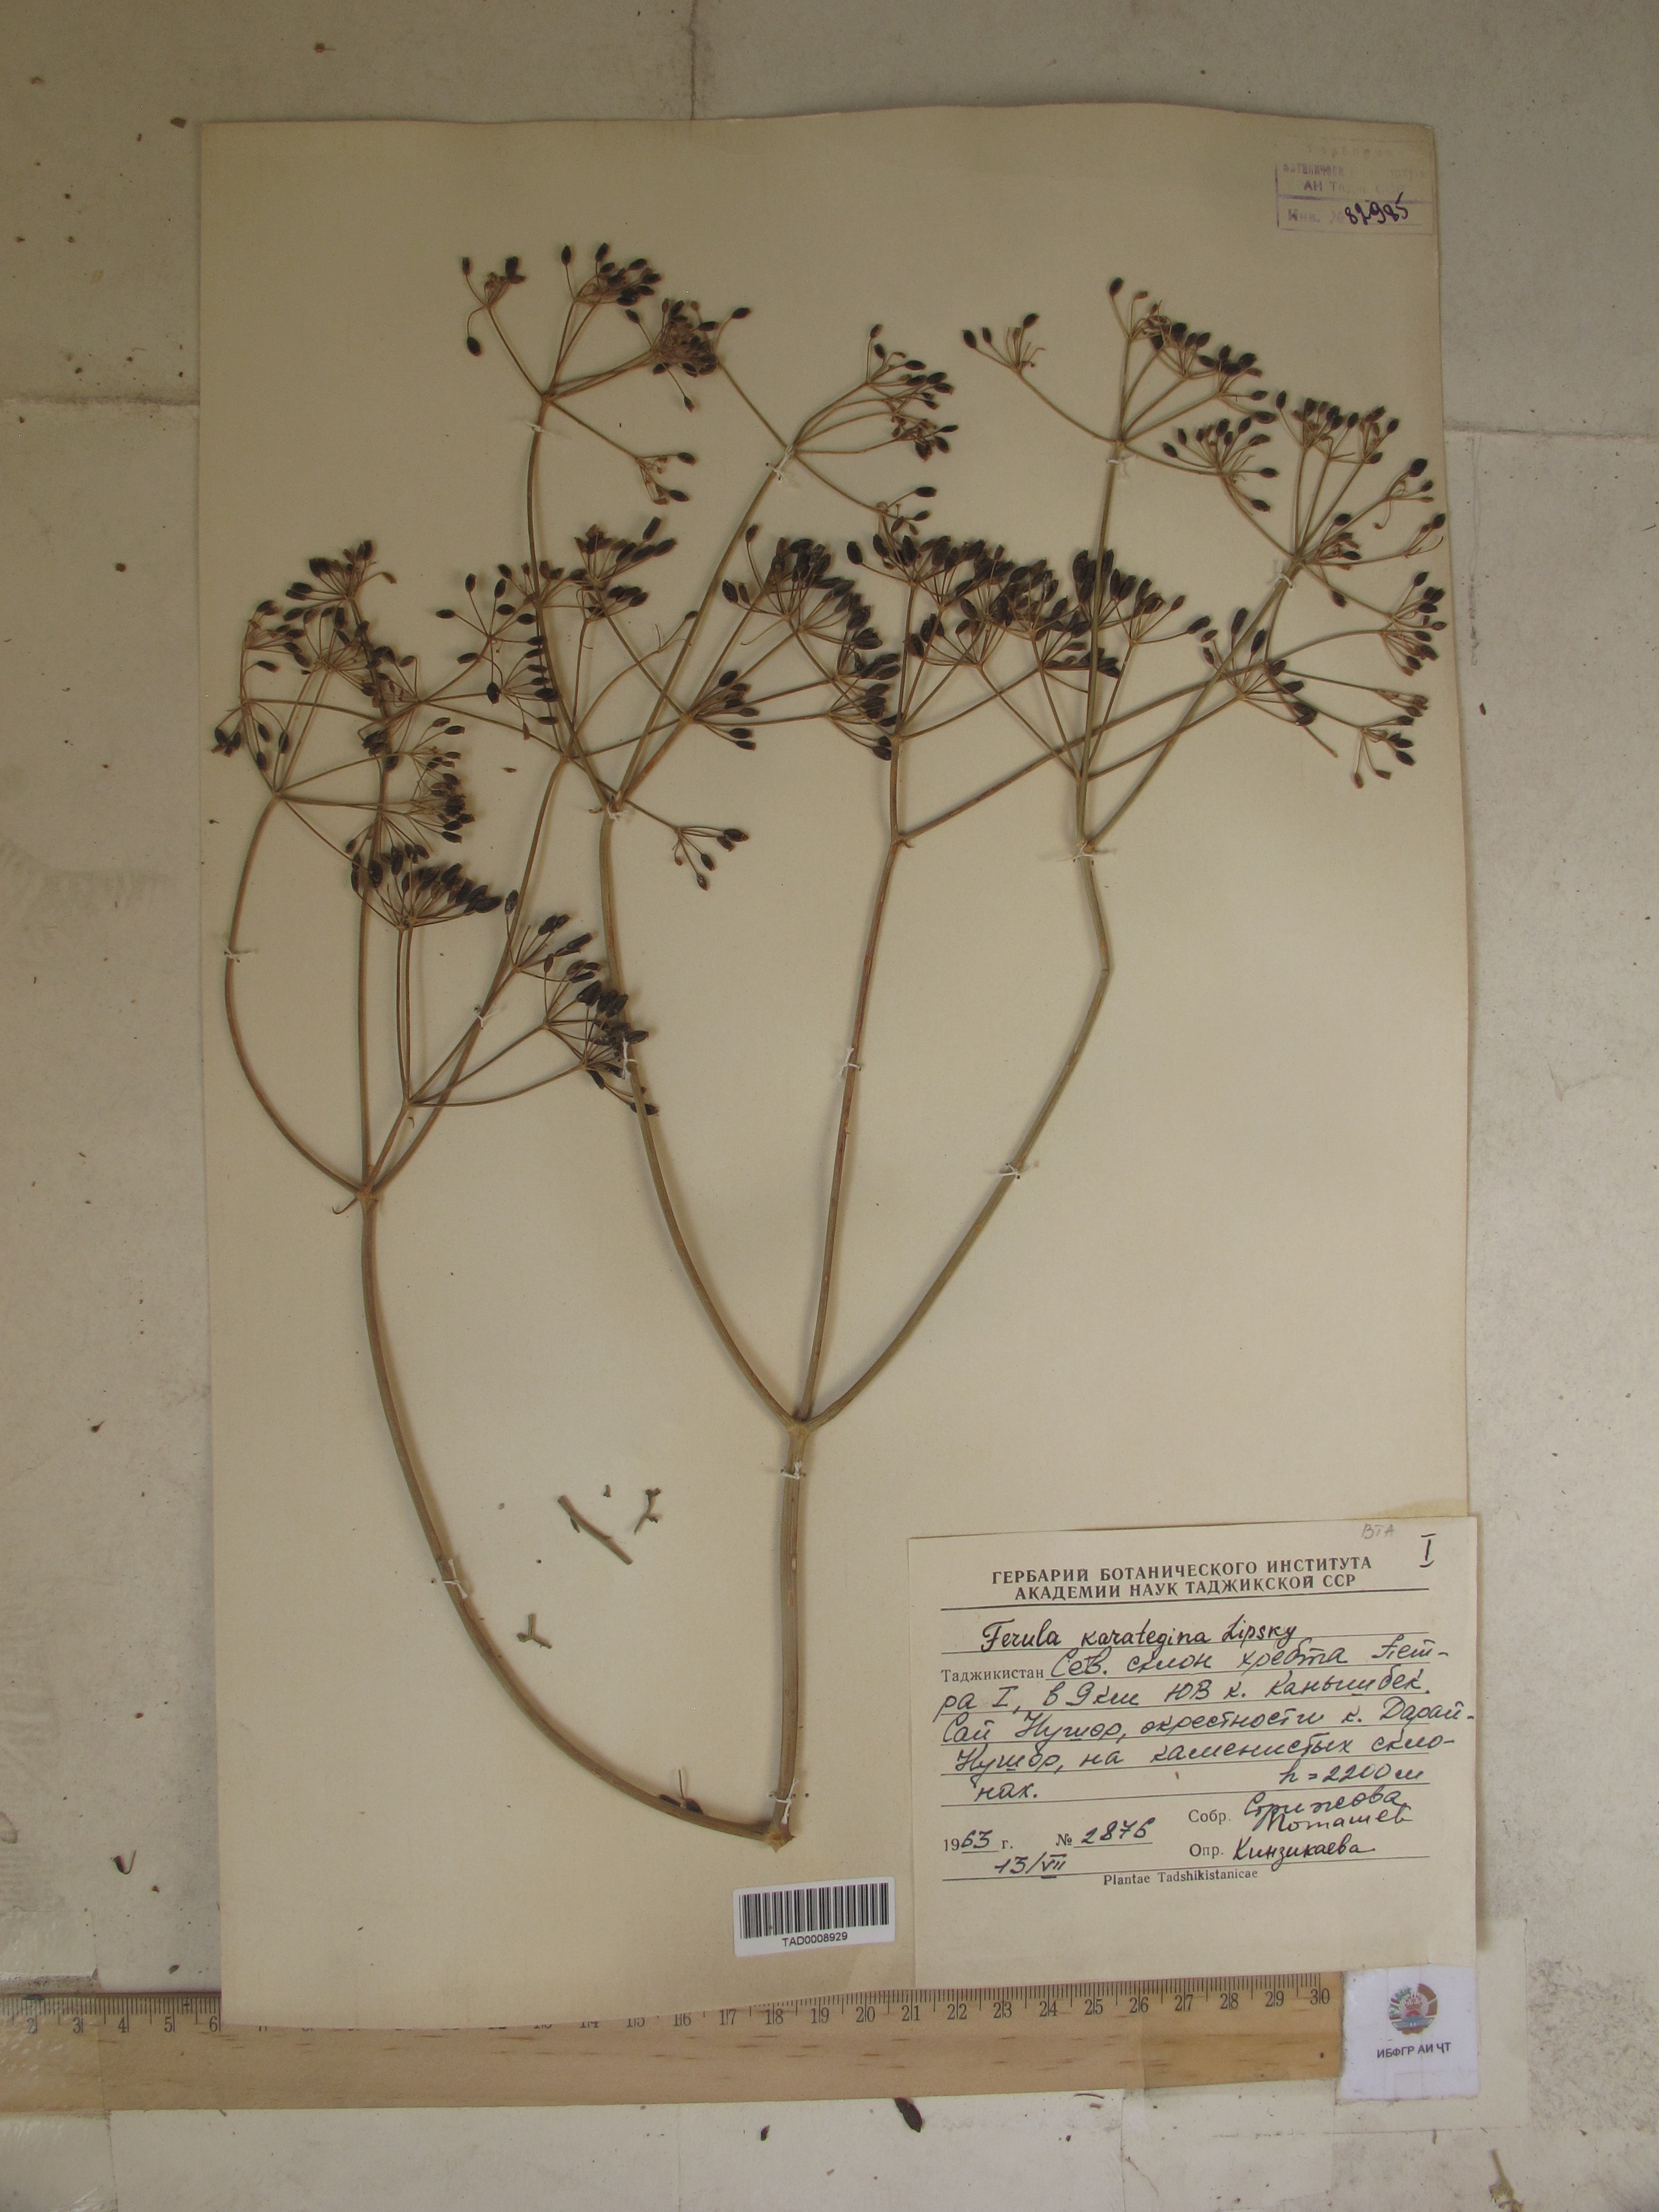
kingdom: Plantae
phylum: Tracheophyta
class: Magnoliopsida
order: Apiales
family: Apiaceae
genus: Ferula
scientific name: Ferula karategina
